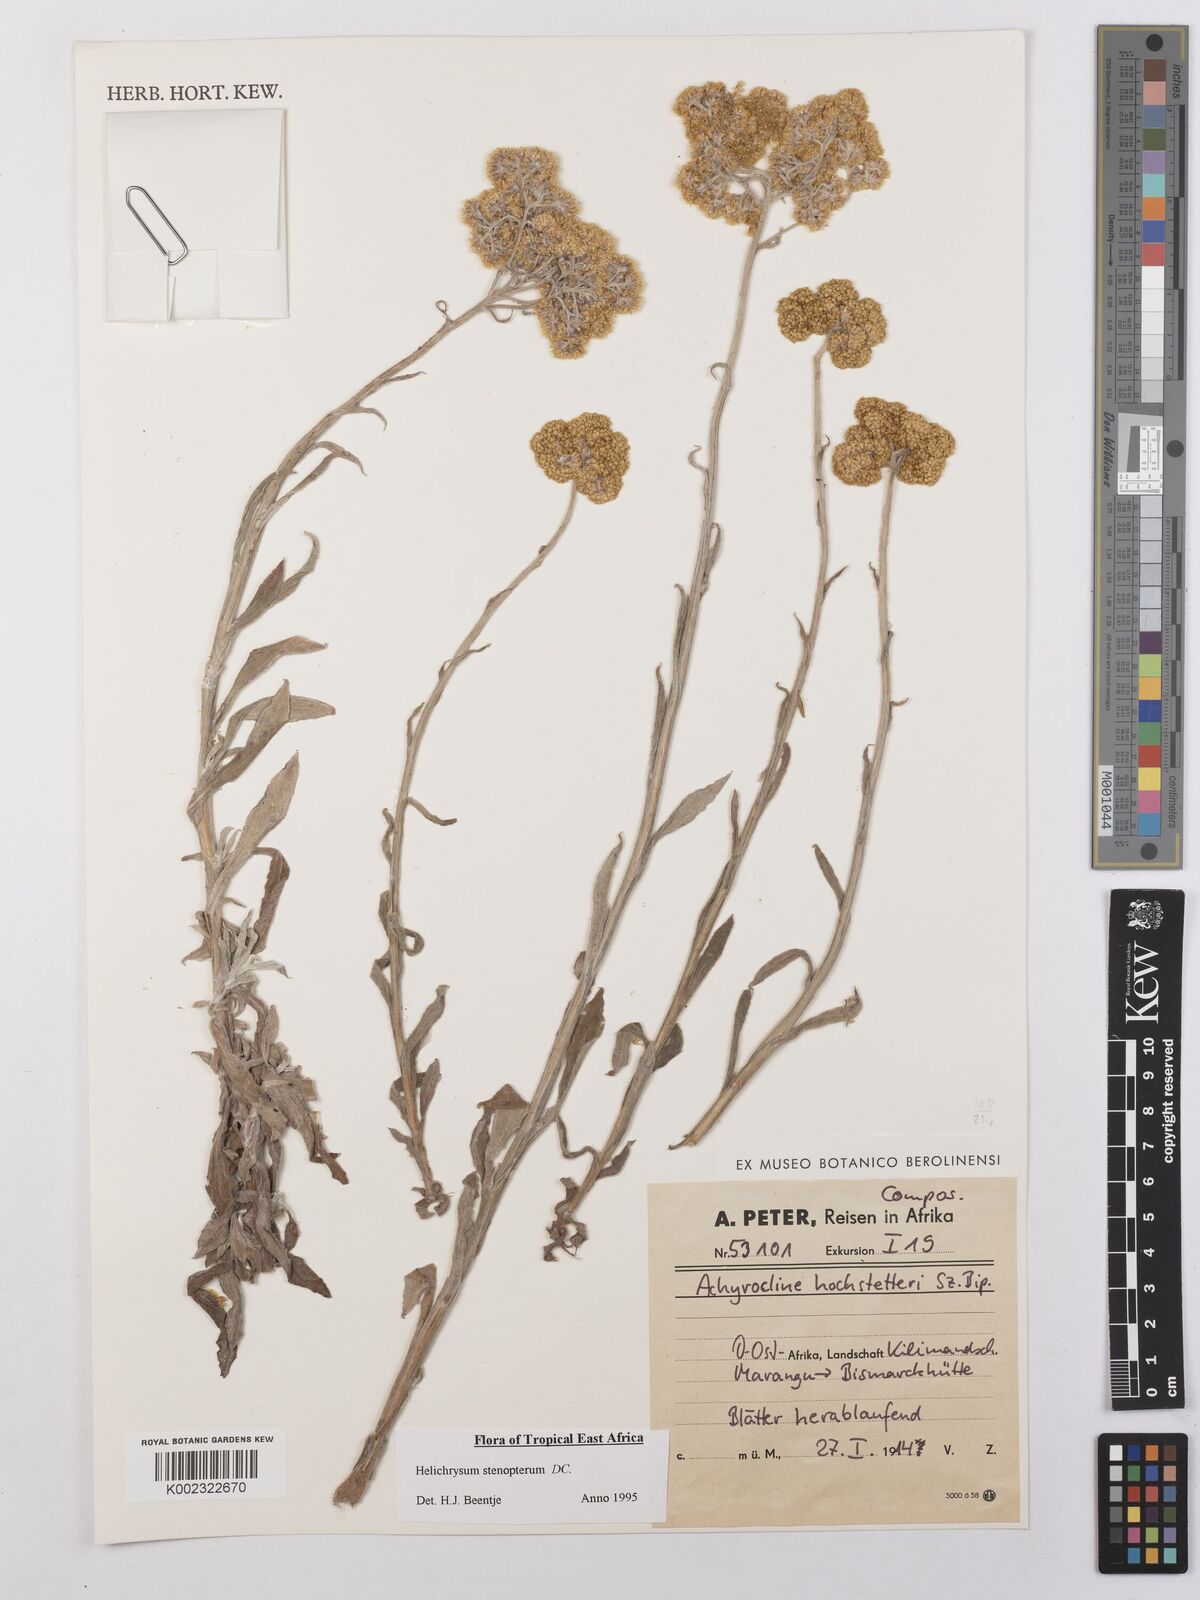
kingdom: Plantae
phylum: Tracheophyta
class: Magnoliopsida
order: Asterales
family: Asteraceae
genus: Helichrysum
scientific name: Helichrysum stenopterum
